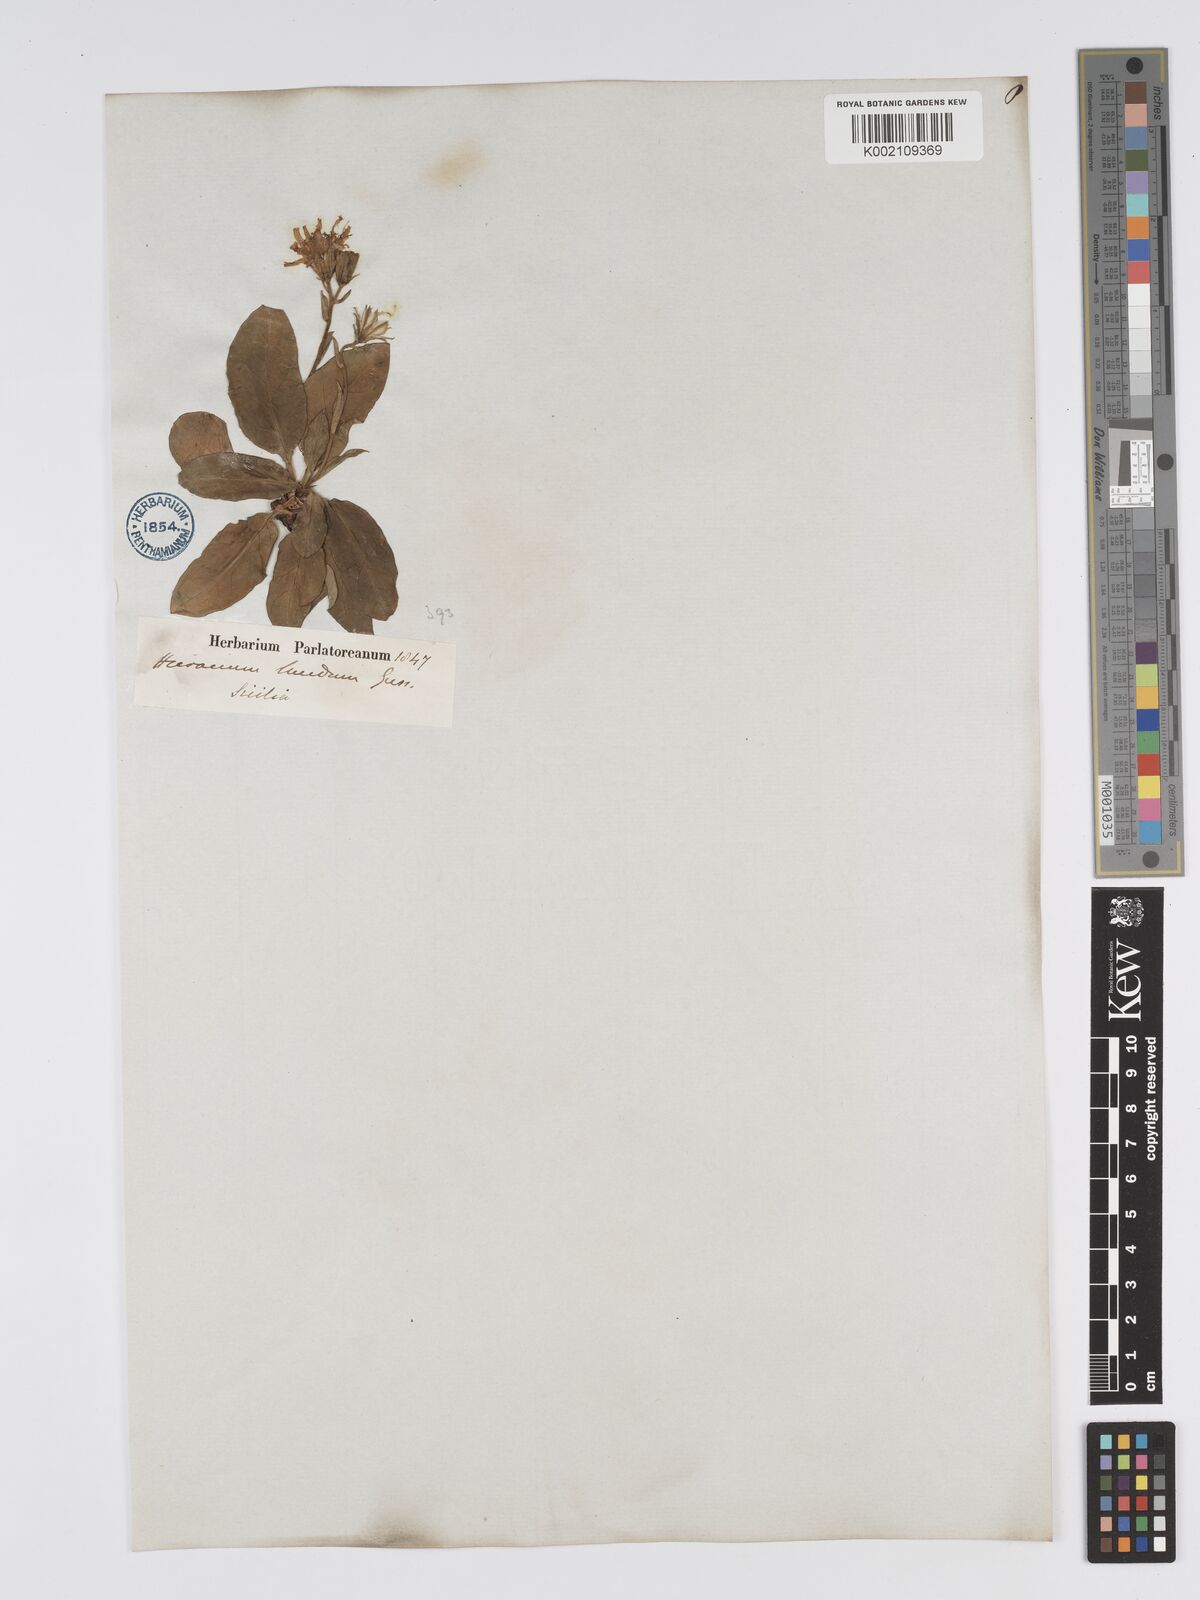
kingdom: Plantae
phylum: Tracheophyta
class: Magnoliopsida
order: Asterales
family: Asteraceae
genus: Hieracium
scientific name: Hieracium lucidum
